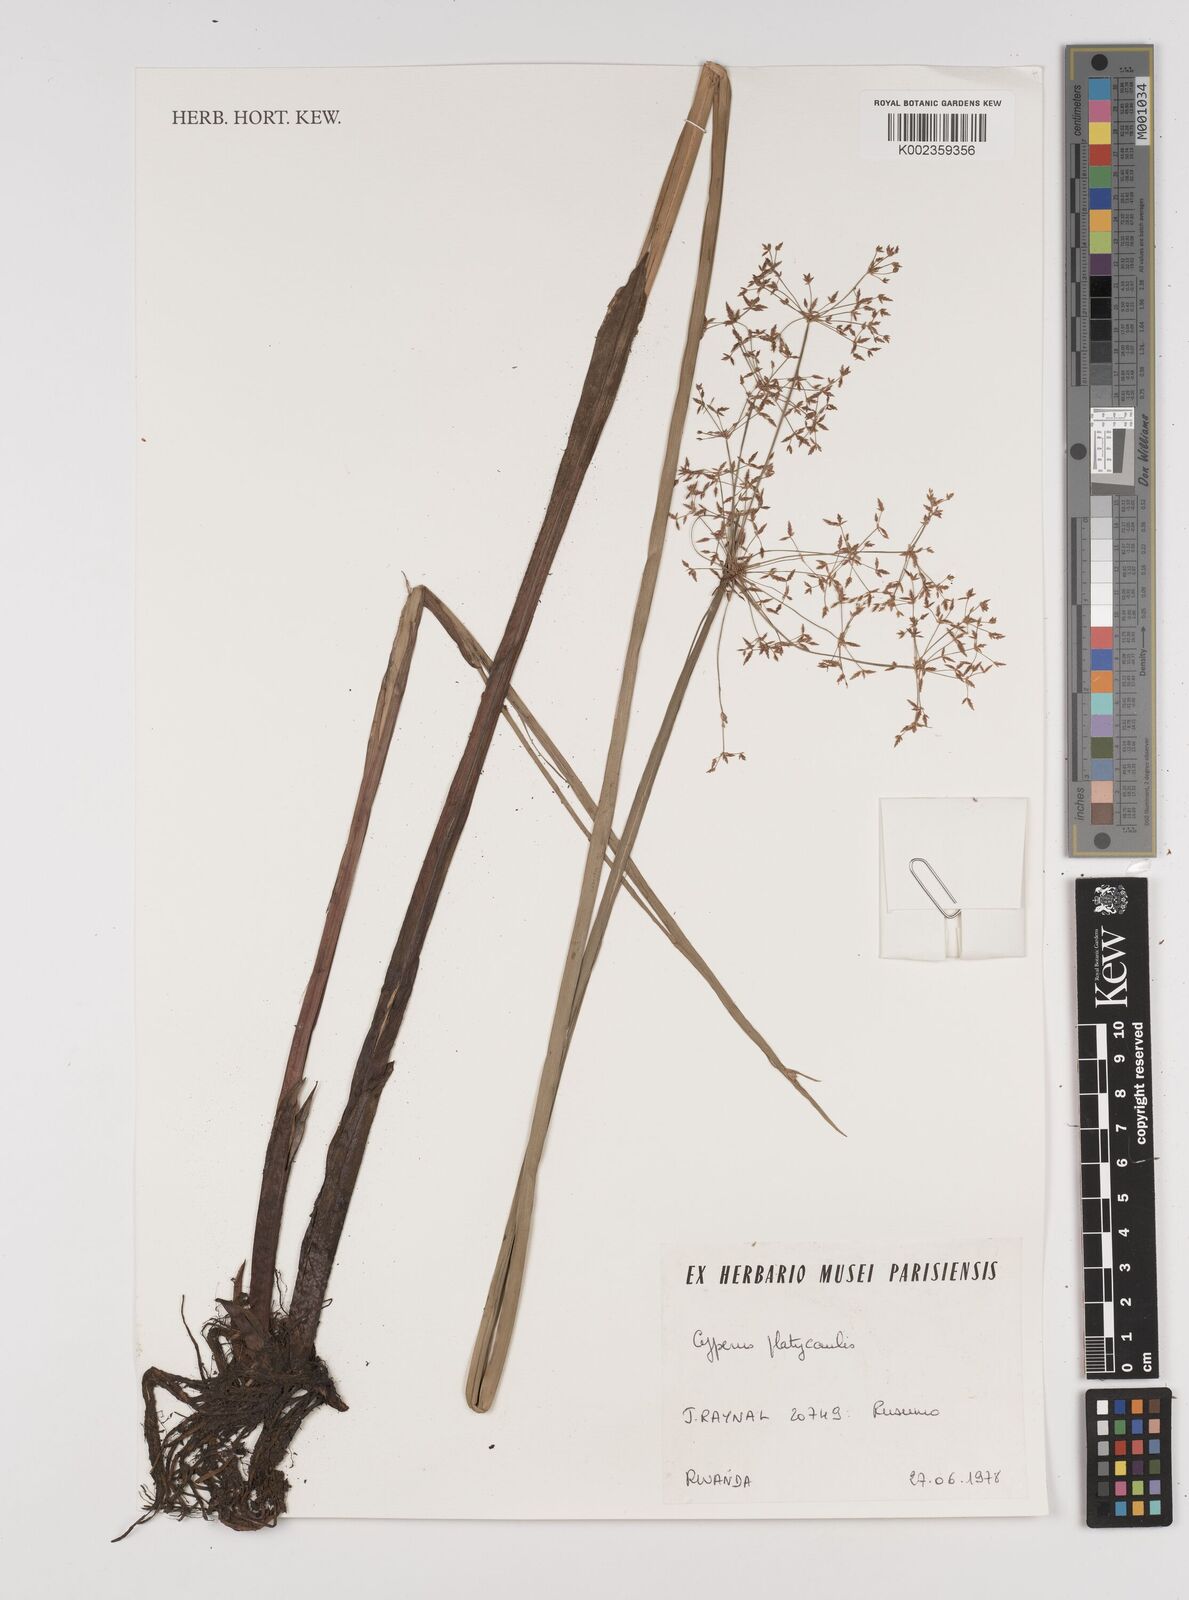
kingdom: Plantae
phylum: Tracheophyta
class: Liliopsida
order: Poales
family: Cyperaceae
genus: Cyperus
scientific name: Cyperus platycaulis
